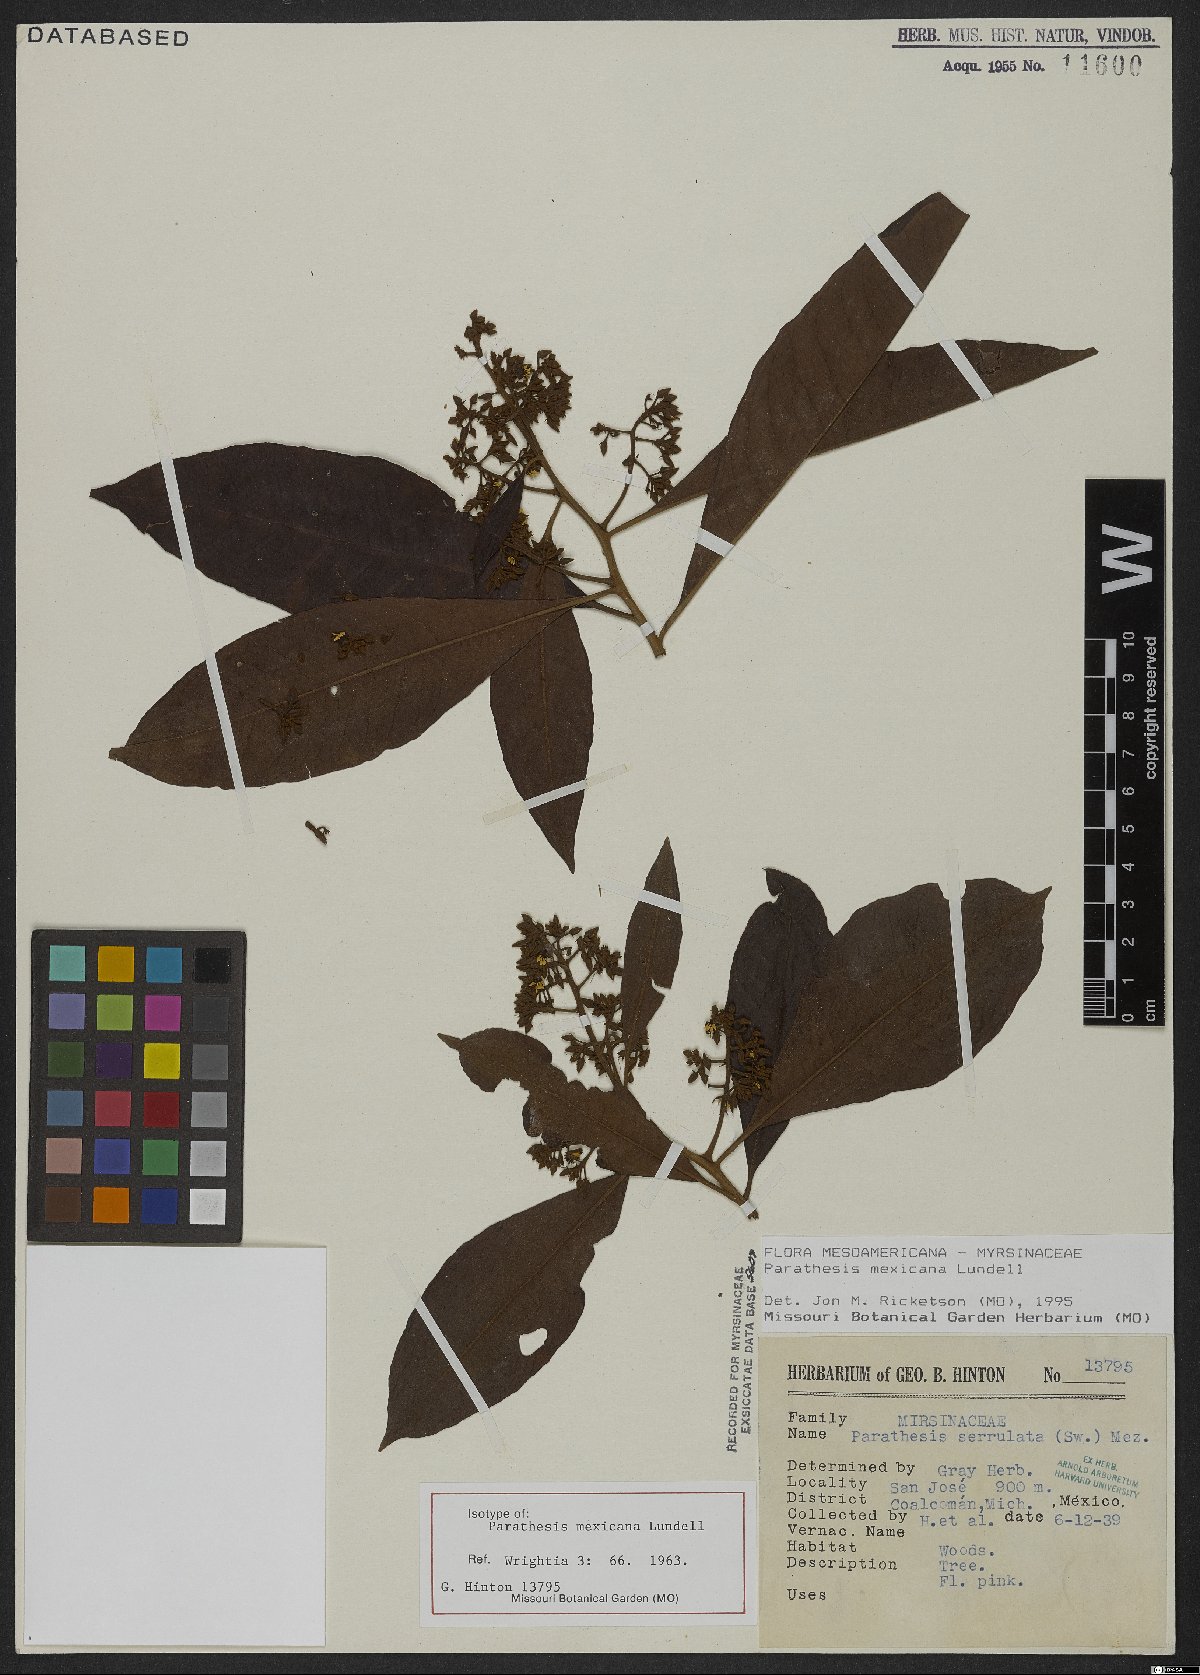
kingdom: Plantae
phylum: Tracheophyta
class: Magnoliopsida
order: Ericales
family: Primulaceae
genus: Parathesis
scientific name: Parathesis mexicana
